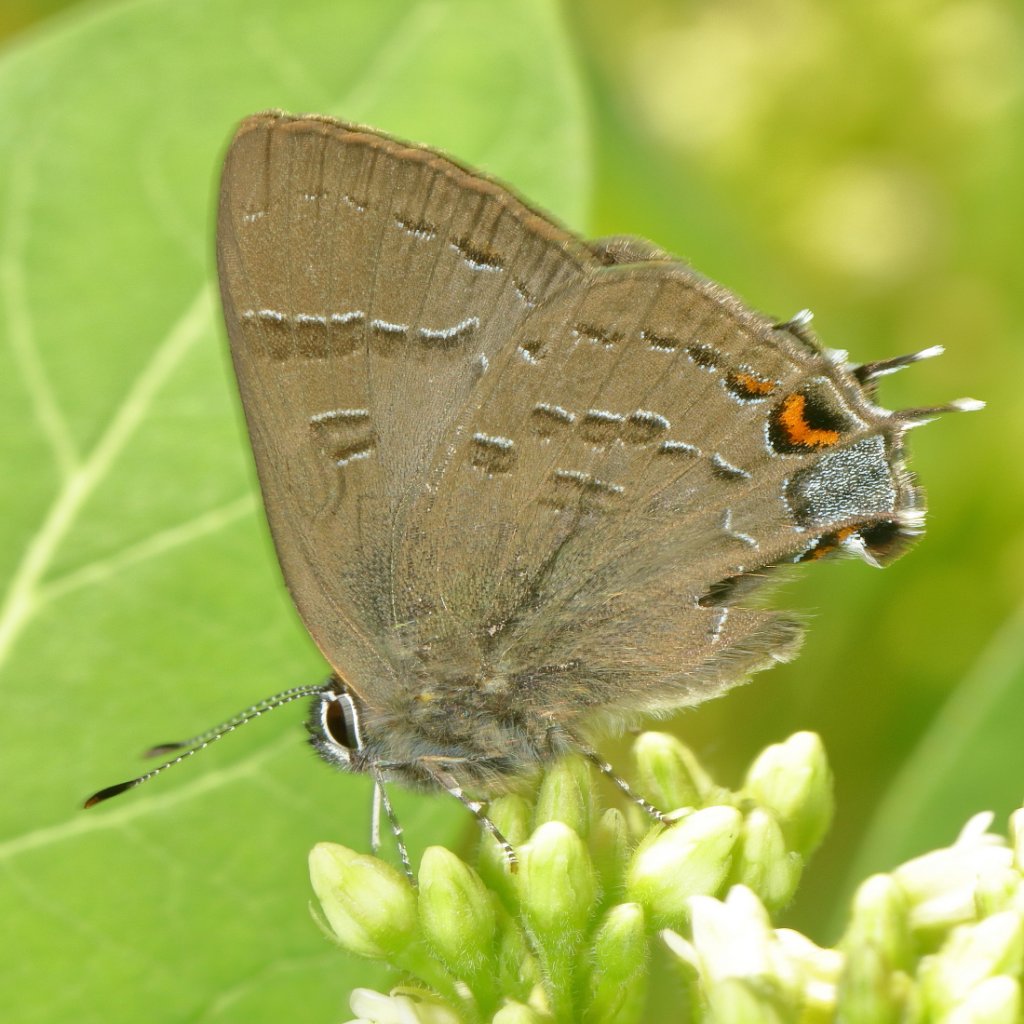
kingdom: Animalia
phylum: Arthropoda
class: Insecta
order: Lepidoptera
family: Lycaenidae
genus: Satyrium
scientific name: Satyrium calanus
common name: Banded Hairstreak
